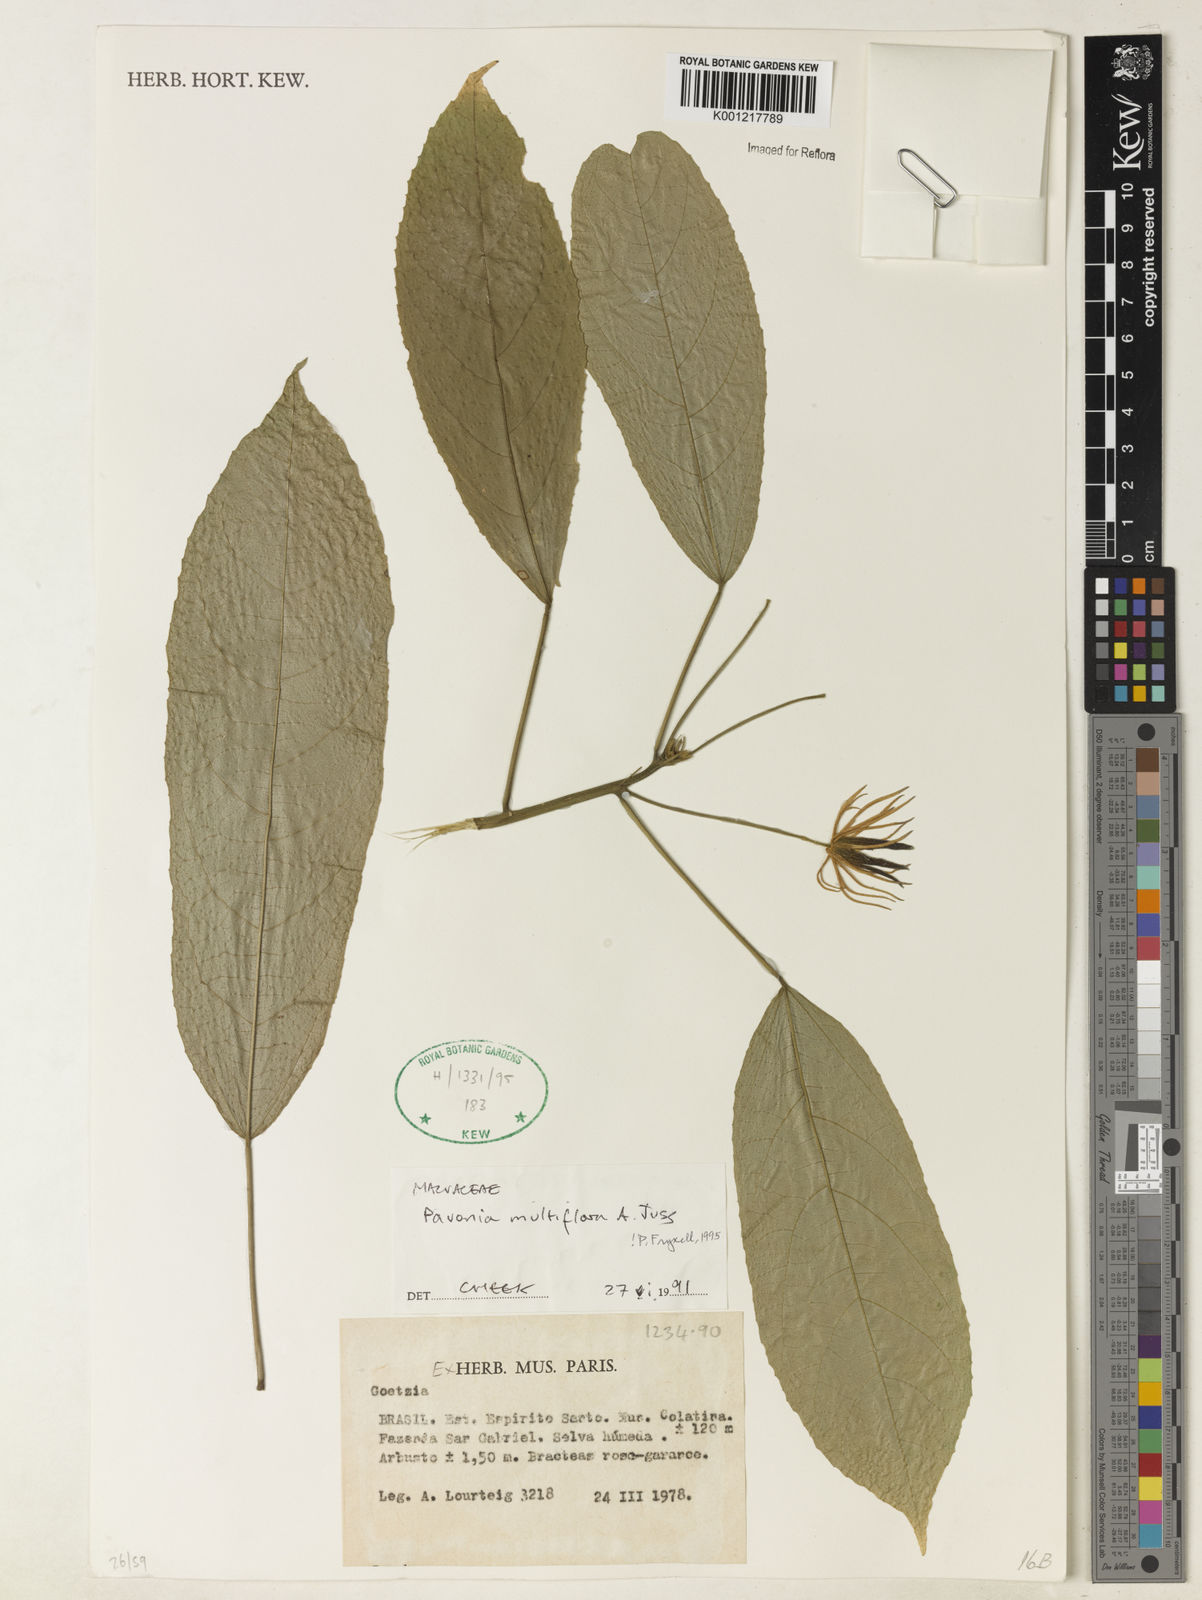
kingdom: Plantae
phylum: Tracheophyta
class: Magnoliopsida
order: Malvales
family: Malvaceae
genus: Pavonia
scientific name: Pavonia multiflora
